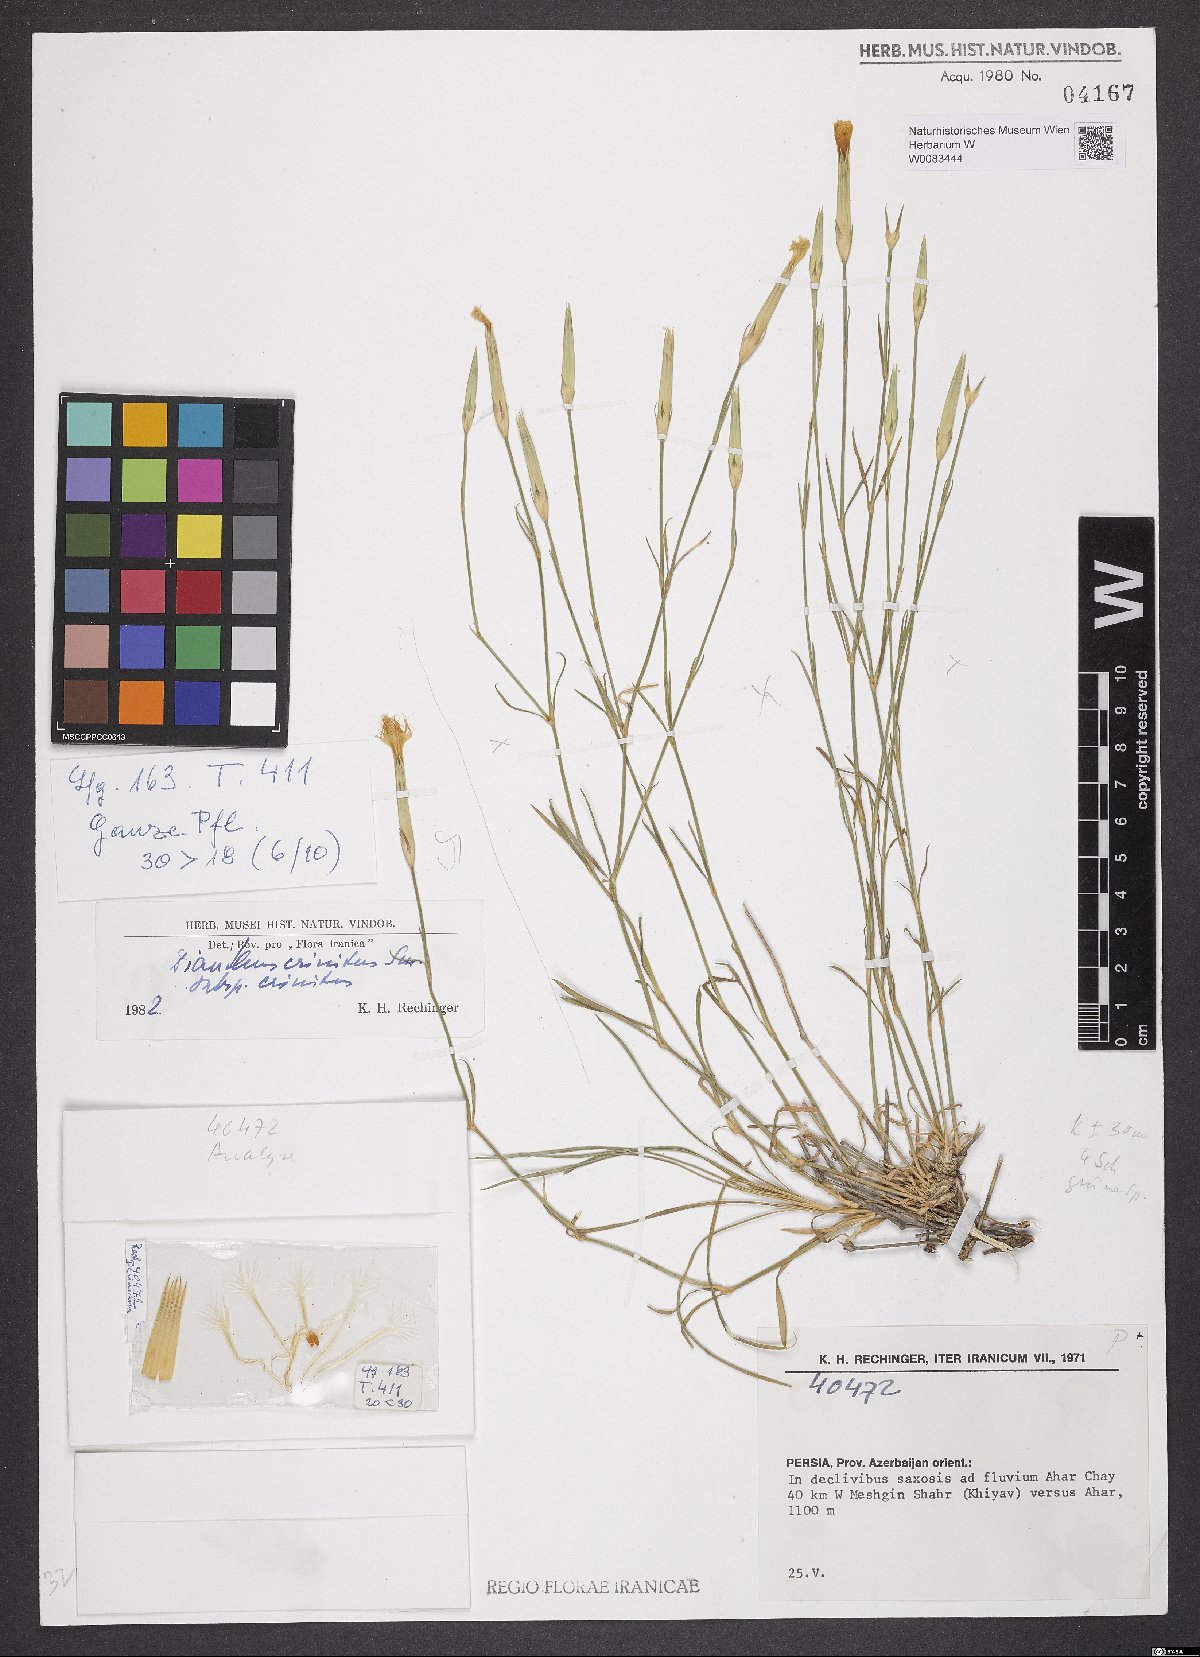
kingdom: Plantae
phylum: Tracheophyta
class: Magnoliopsida
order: Caryophyllales
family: Caryophyllaceae
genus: Dianthus
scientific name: Dianthus crinitus
